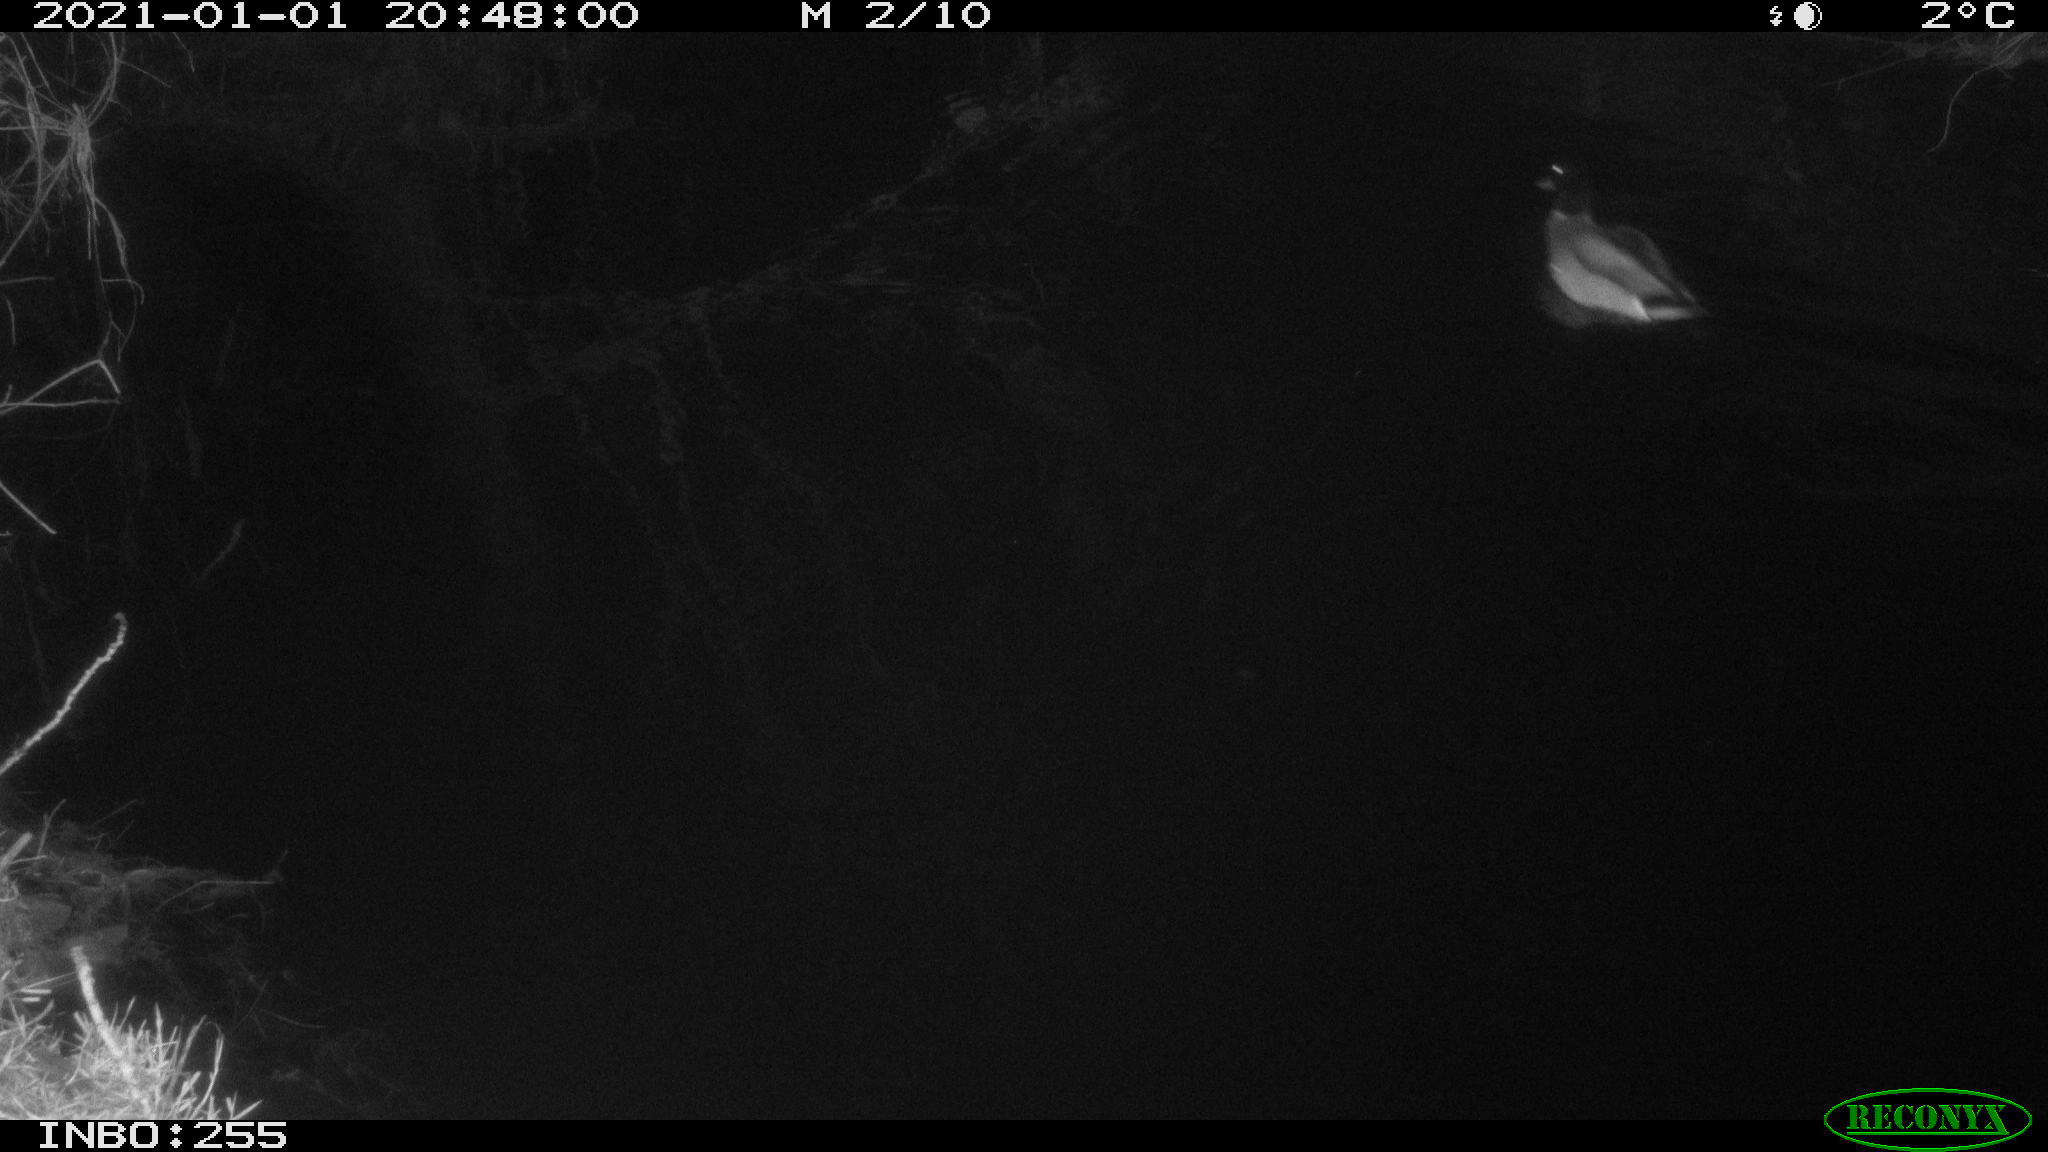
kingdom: Animalia
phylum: Chordata
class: Aves
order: Anseriformes
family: Anatidae
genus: Anas
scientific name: Anas platyrhynchos
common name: Mallard
